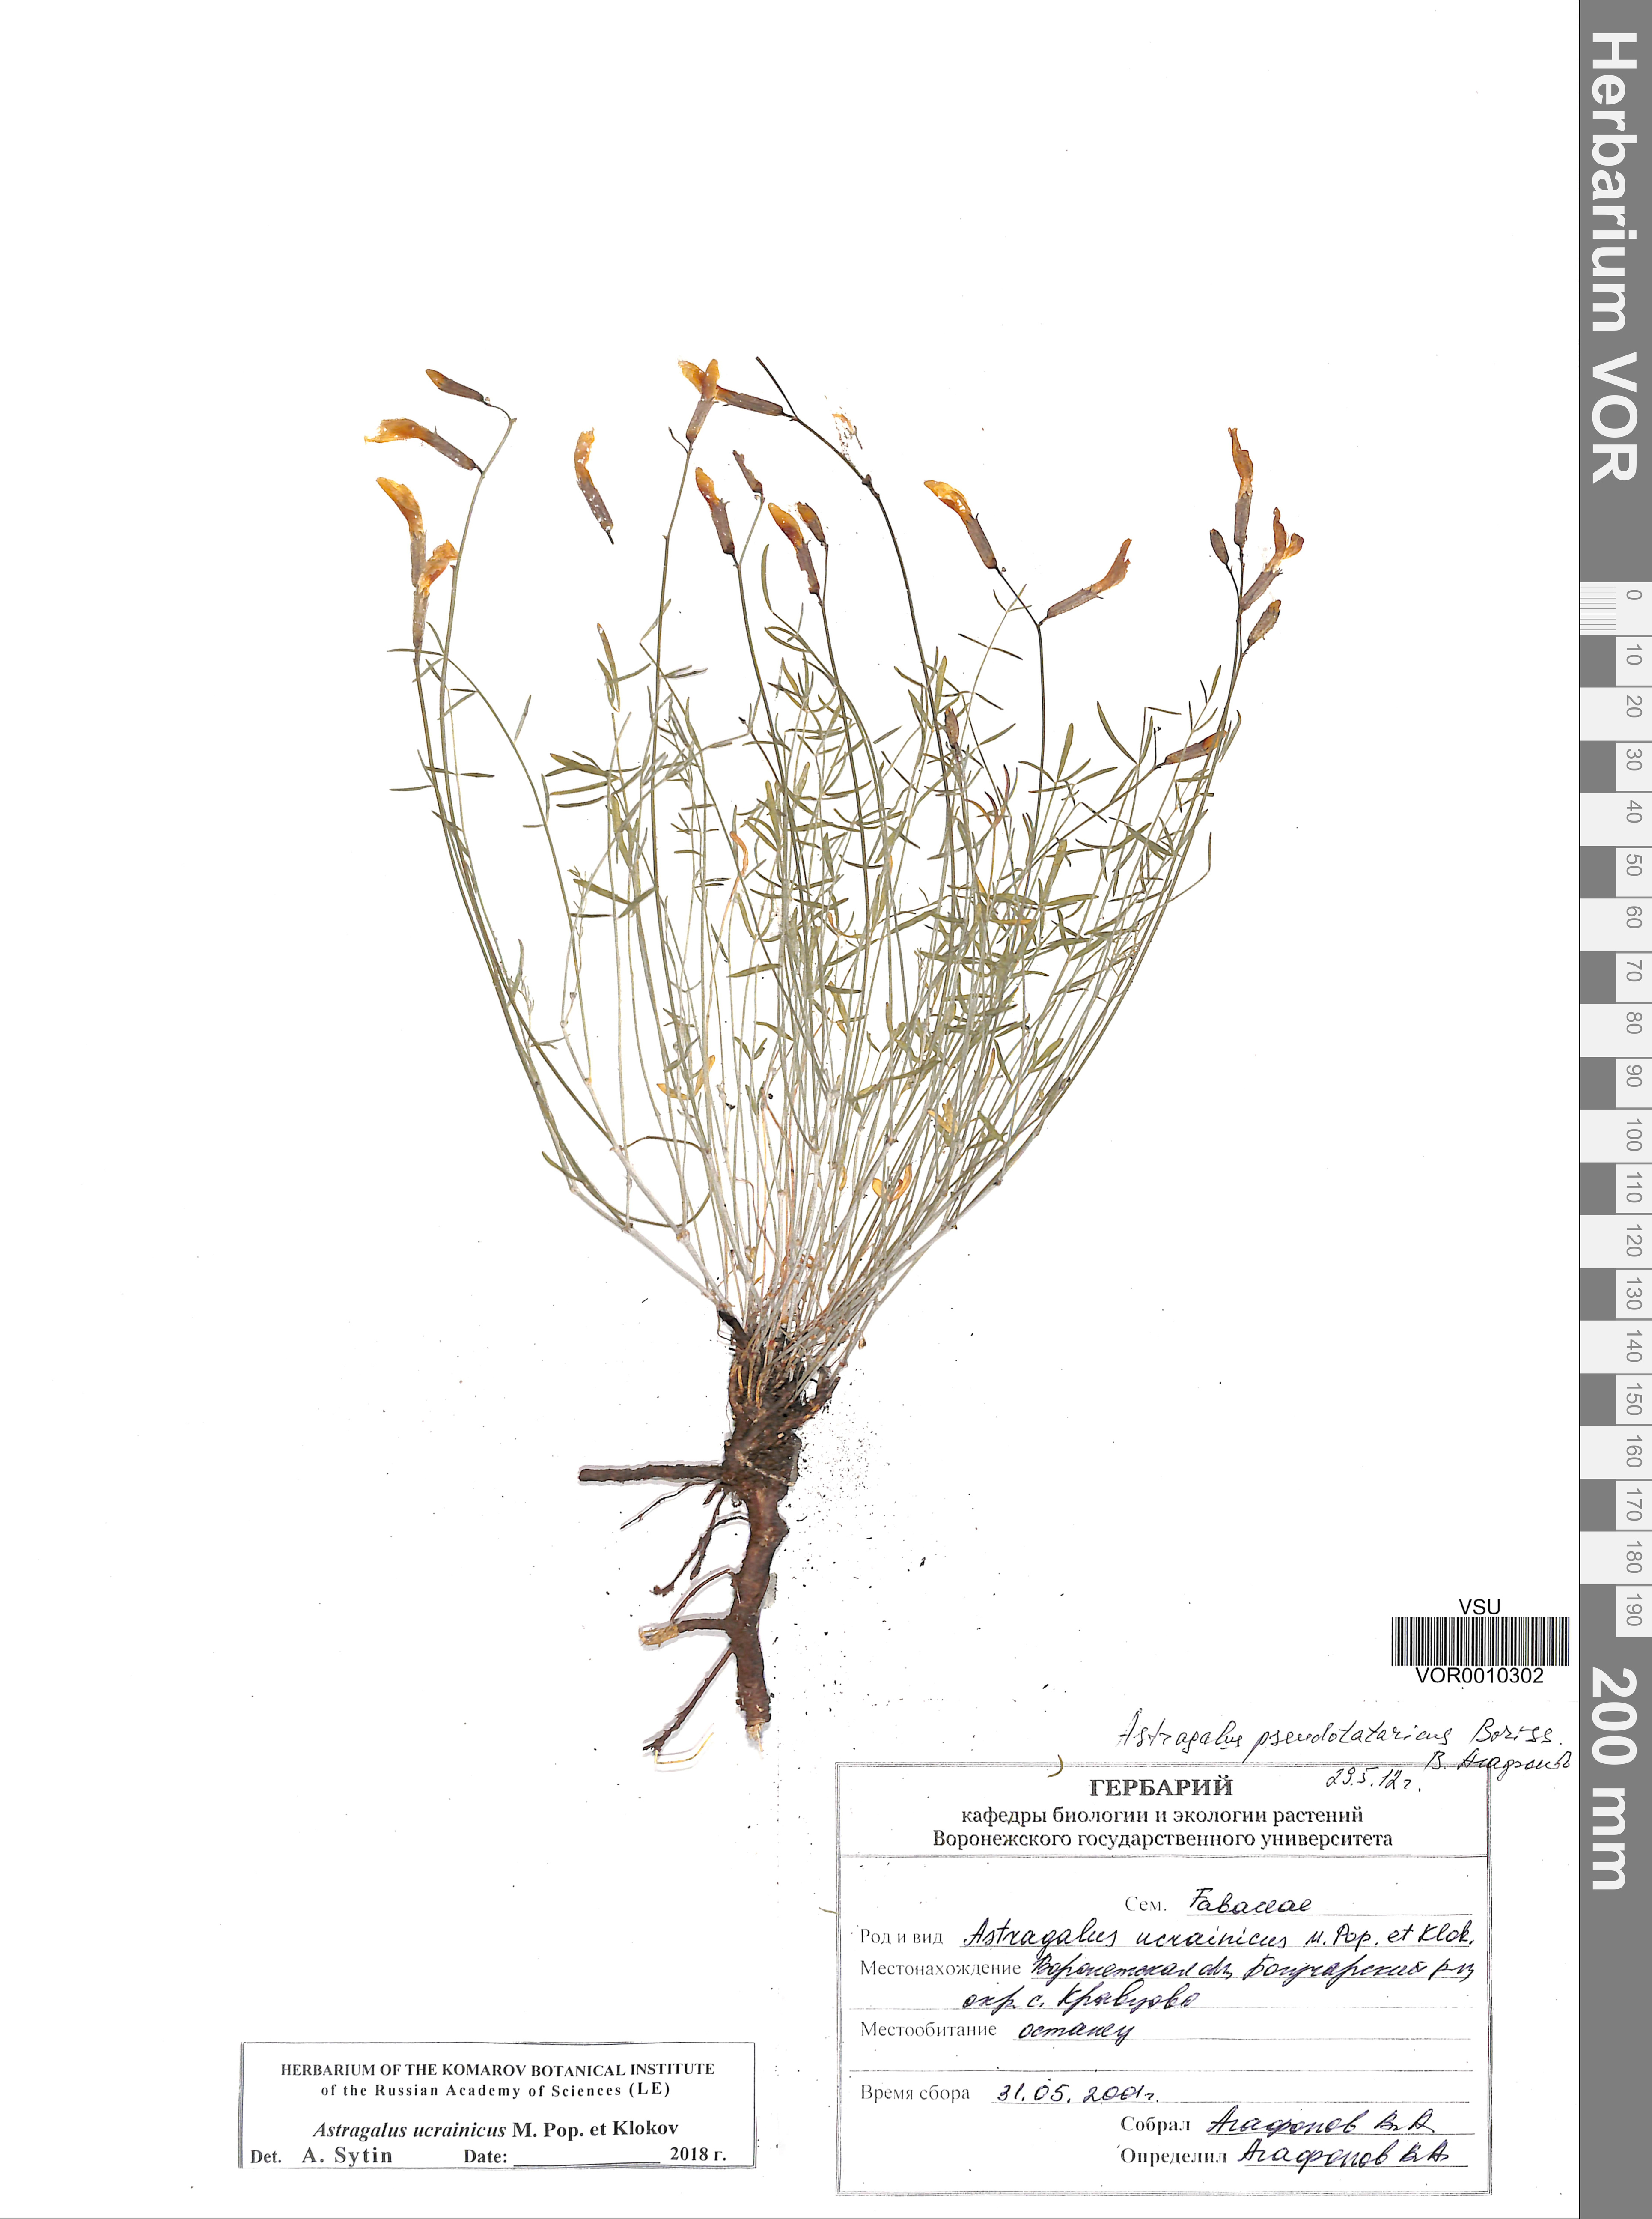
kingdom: Plantae
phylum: Tracheophyta
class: Magnoliopsida
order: Fabales
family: Fabaceae
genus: Astragalus
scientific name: Astragalus ucrainicus
